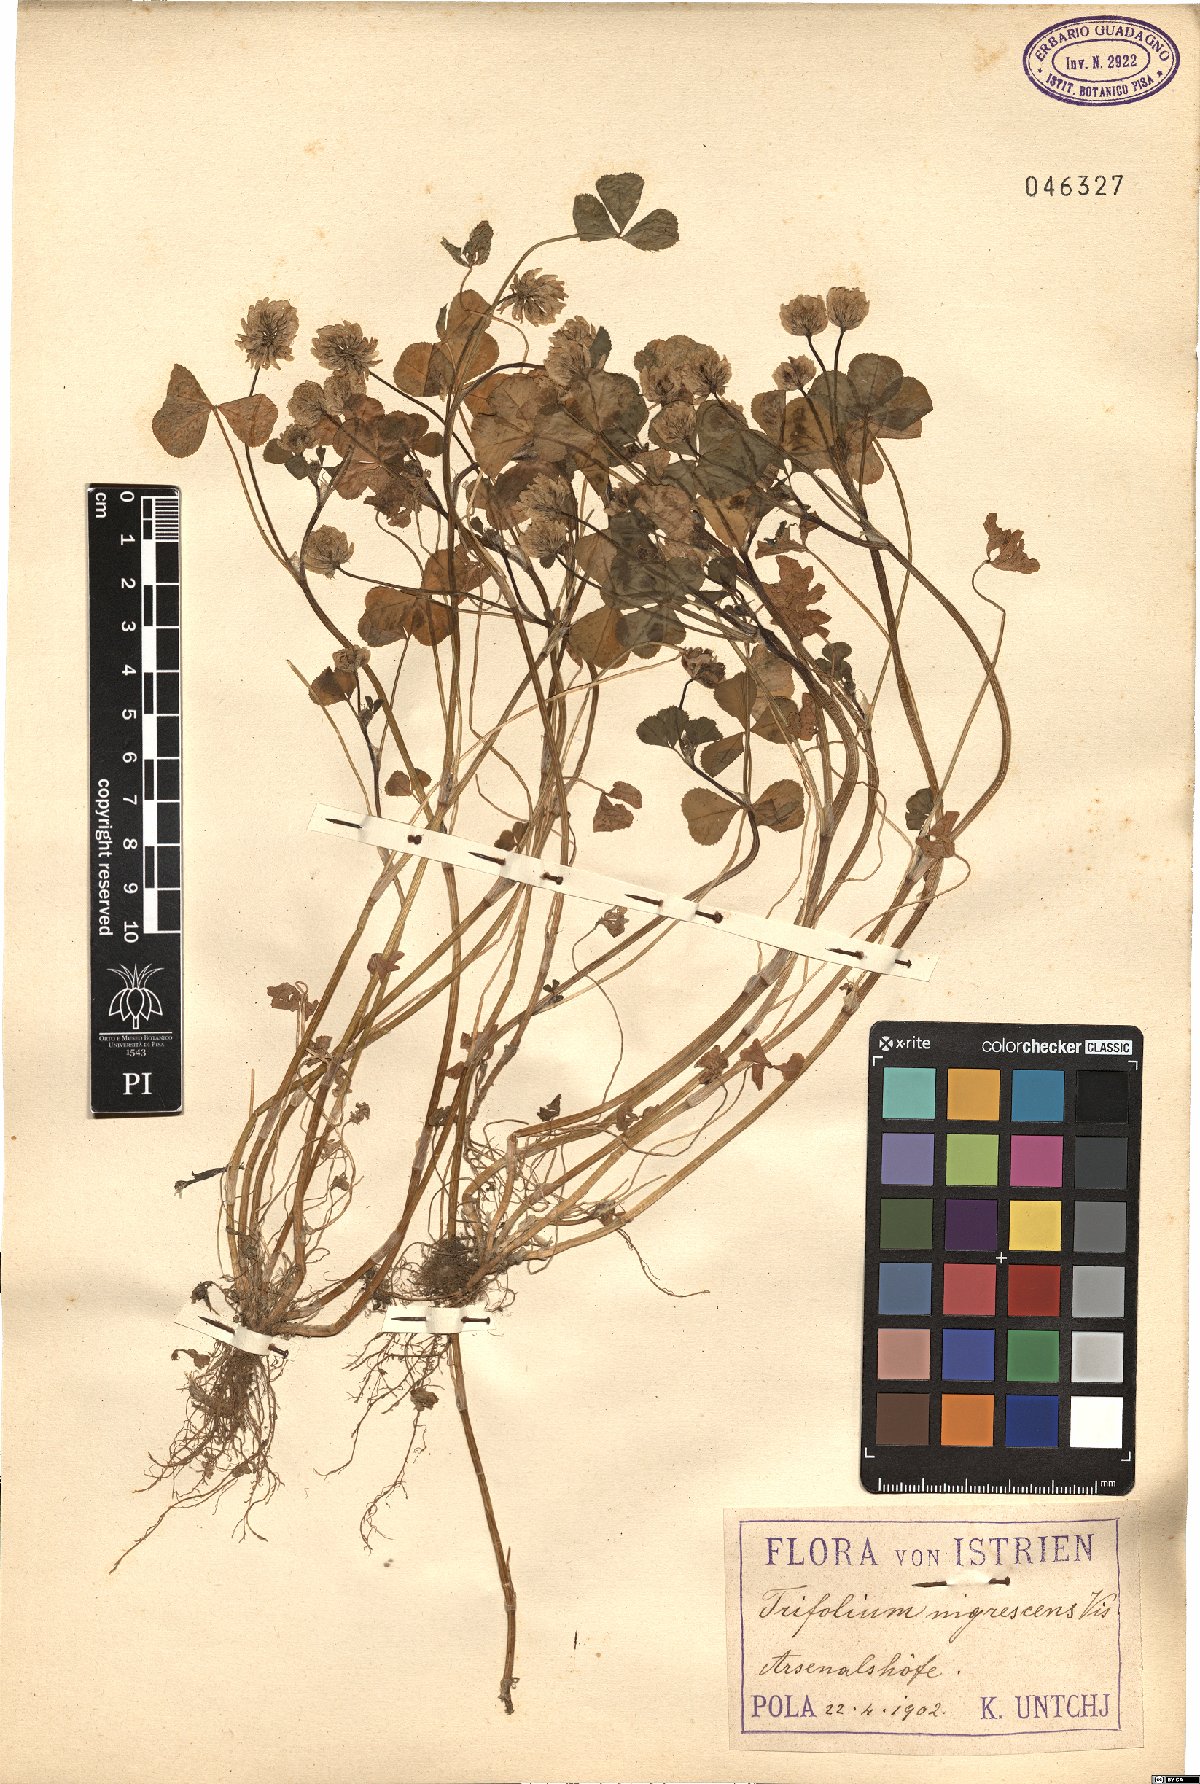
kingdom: Plantae
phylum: Tracheophyta
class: Magnoliopsida
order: Fabales
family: Fabaceae
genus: Trifolium
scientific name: Trifolium nigrescens
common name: Small white clover
